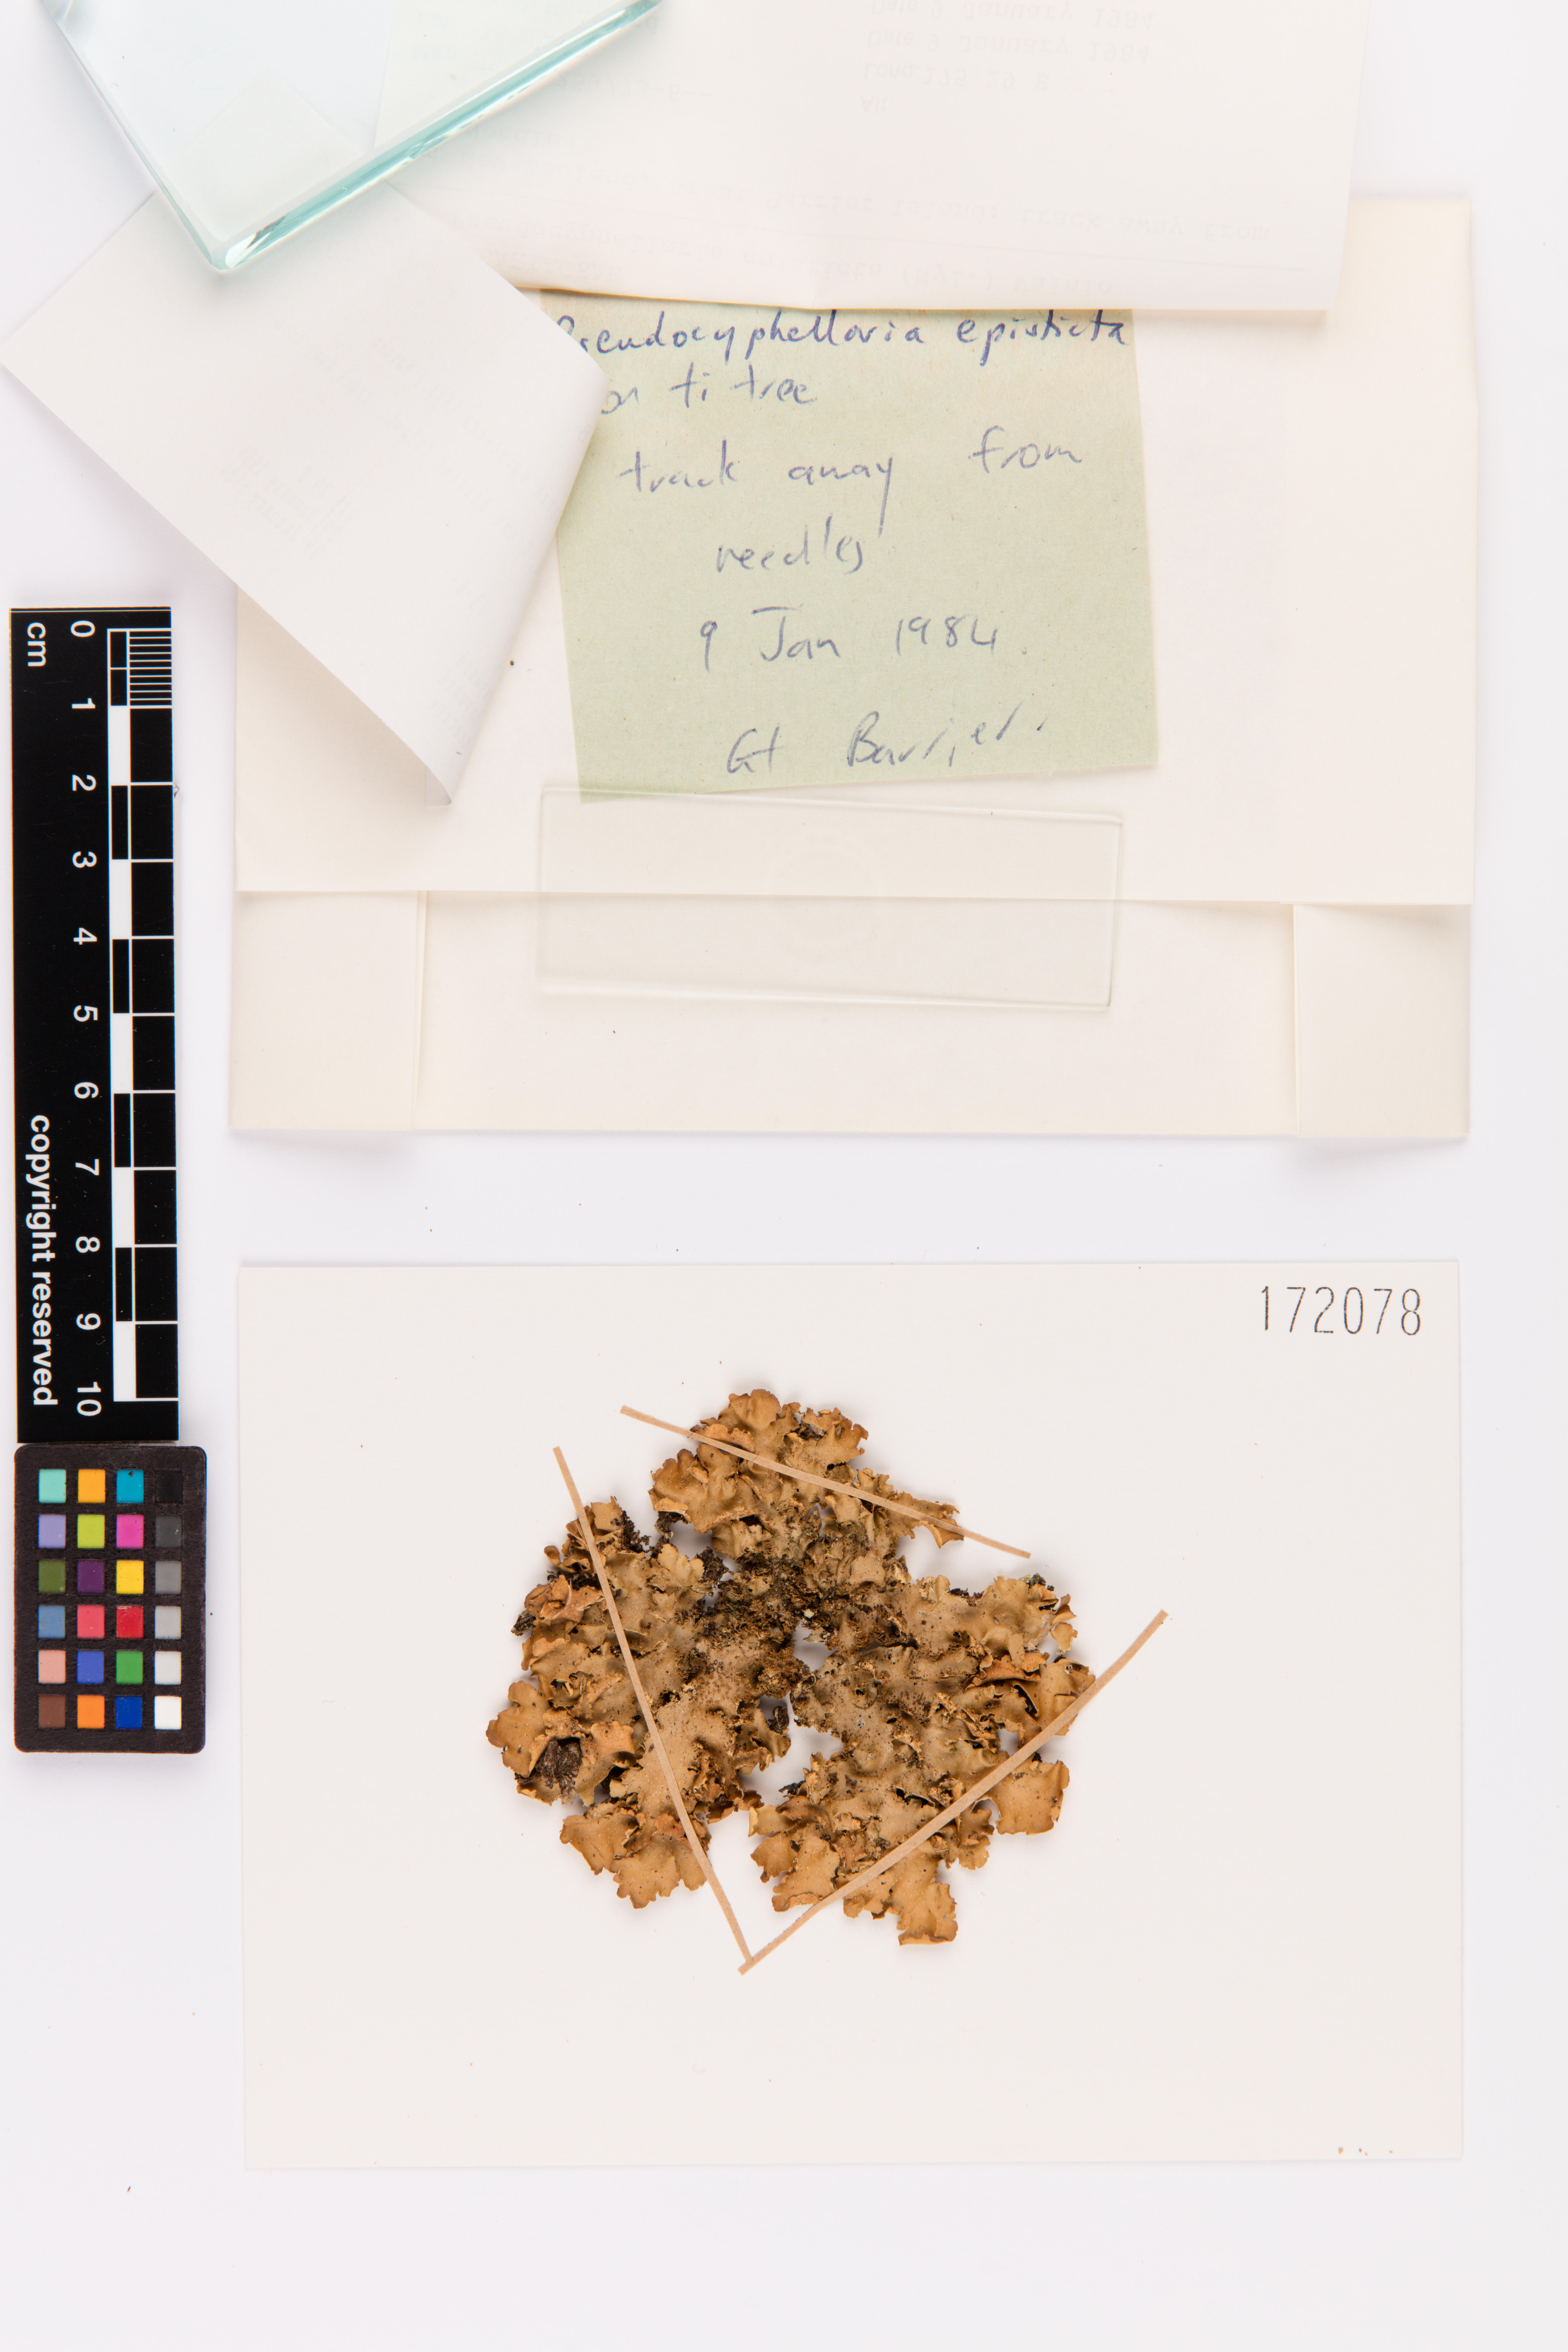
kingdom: Fungi
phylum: Ascomycota
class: Lecanoromycetes
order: Peltigerales
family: Lobariaceae
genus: Pseudocyphellaria
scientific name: Pseudocyphellaria episticta
